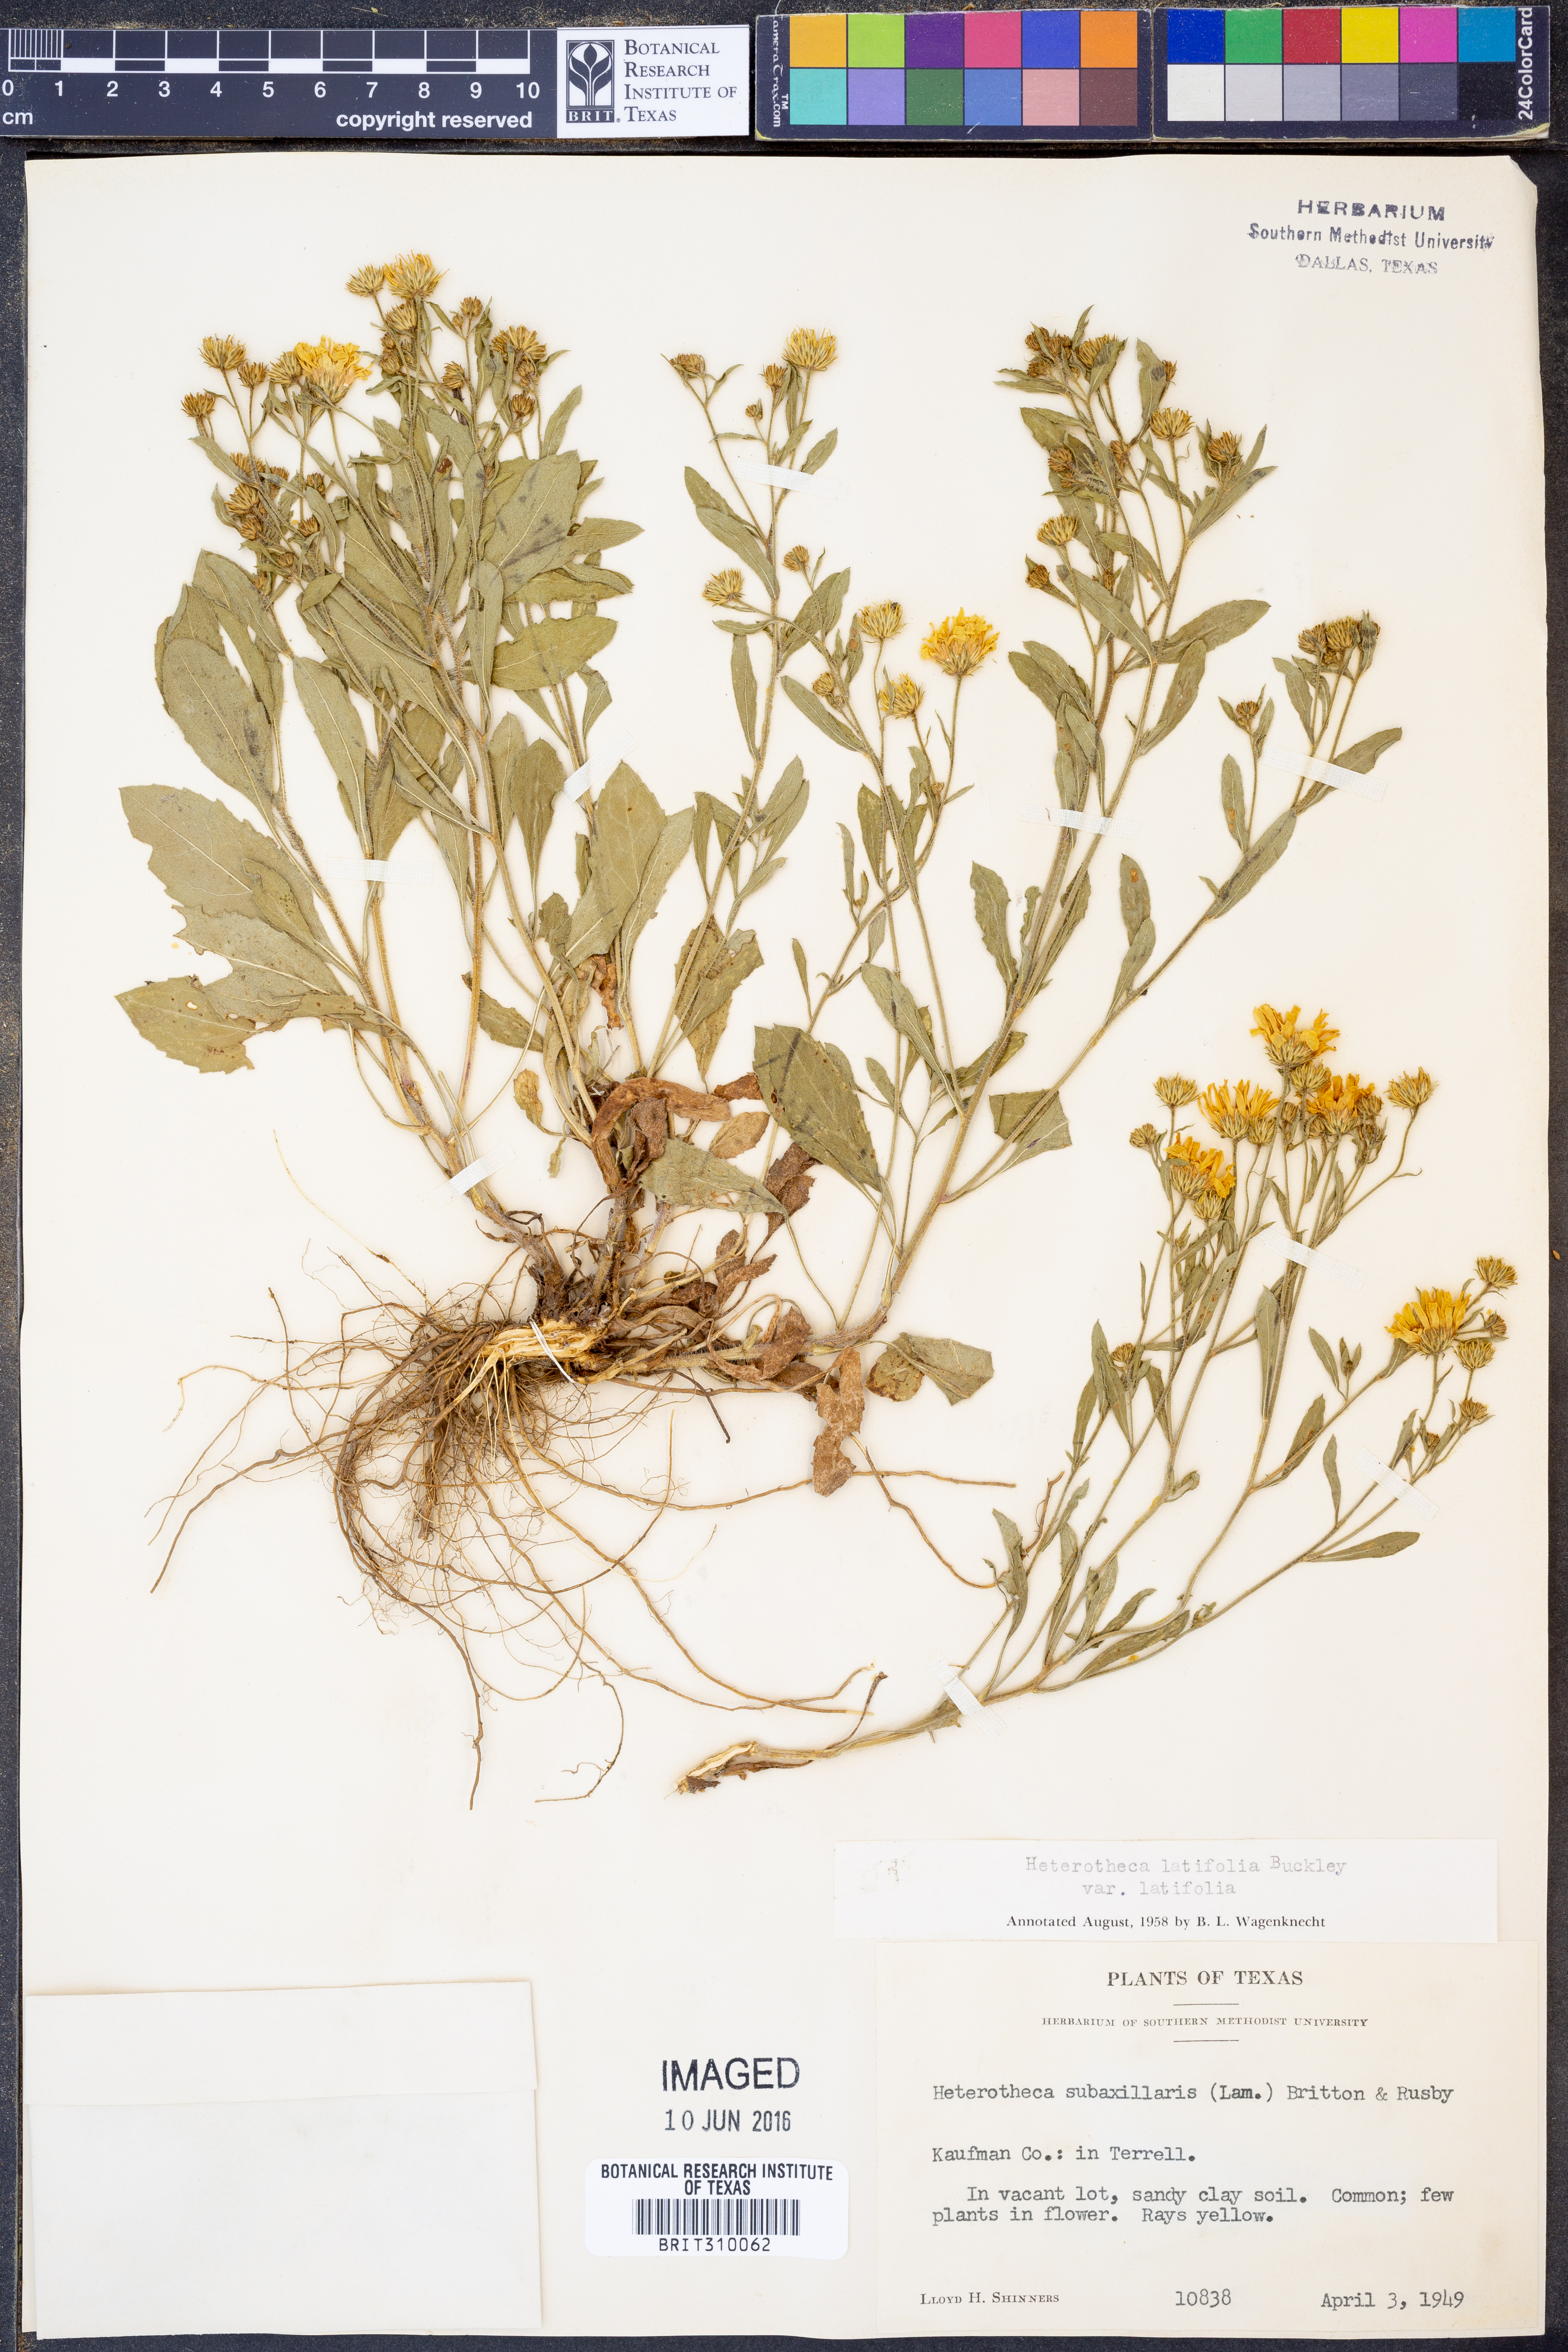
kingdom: Plantae
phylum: Tracheophyta
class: Magnoliopsida
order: Asterales
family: Asteraceae
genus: Heterotheca
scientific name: Heterotheca subaxillaris
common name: Camphorweed
